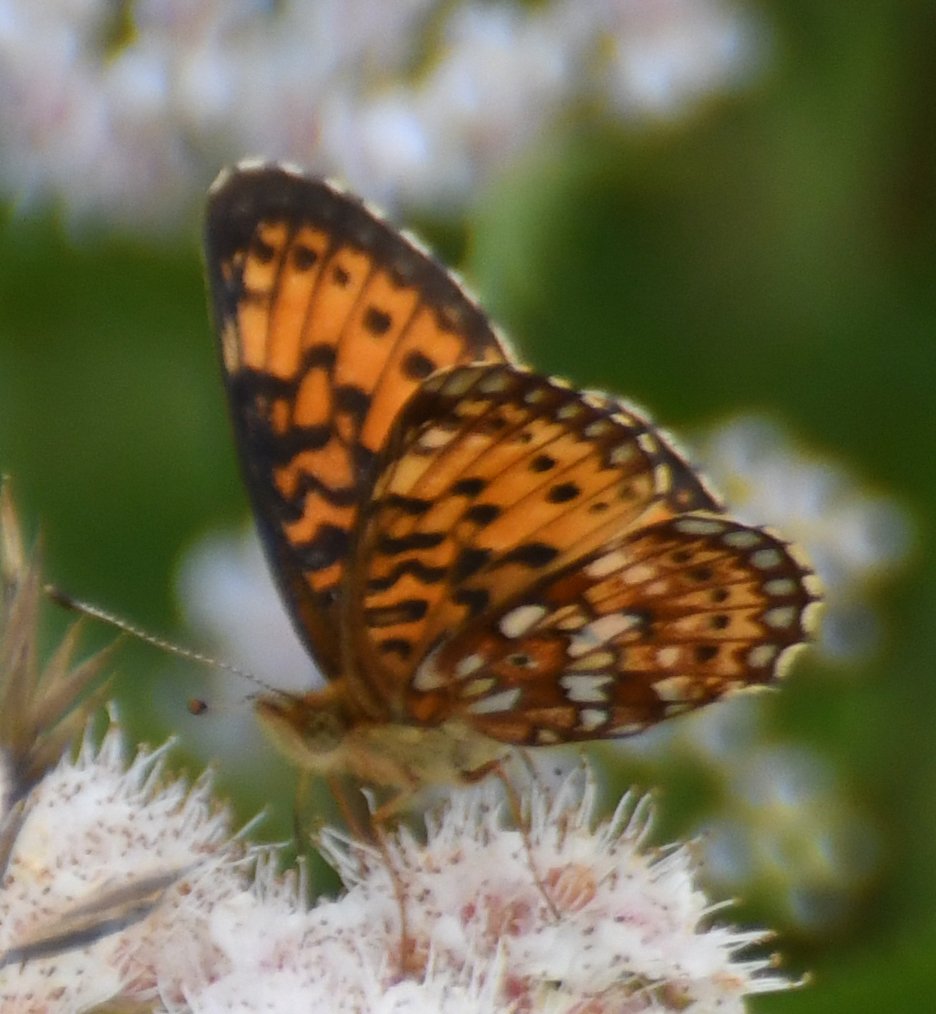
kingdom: Animalia
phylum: Arthropoda
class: Insecta
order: Lepidoptera
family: Nymphalidae
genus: Boloria
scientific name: Boloria selene
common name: Silver-bordered Fritillary
